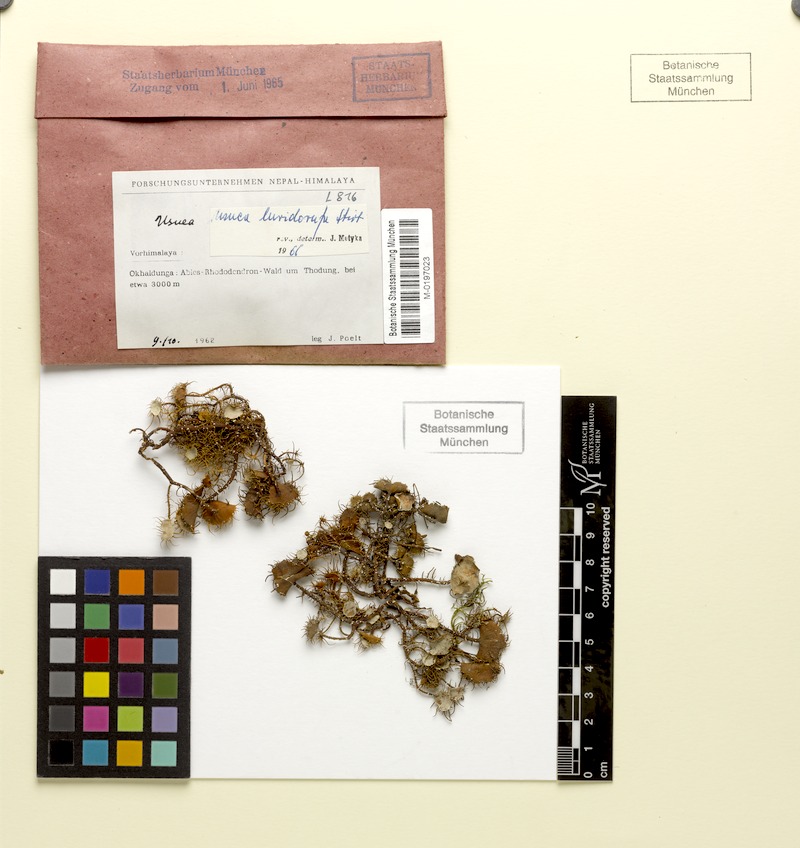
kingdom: Fungi
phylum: Ascomycota
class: Lecanoromycetes
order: Lecanorales
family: Parmeliaceae
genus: Usnea
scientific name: Usnea luridorufa
